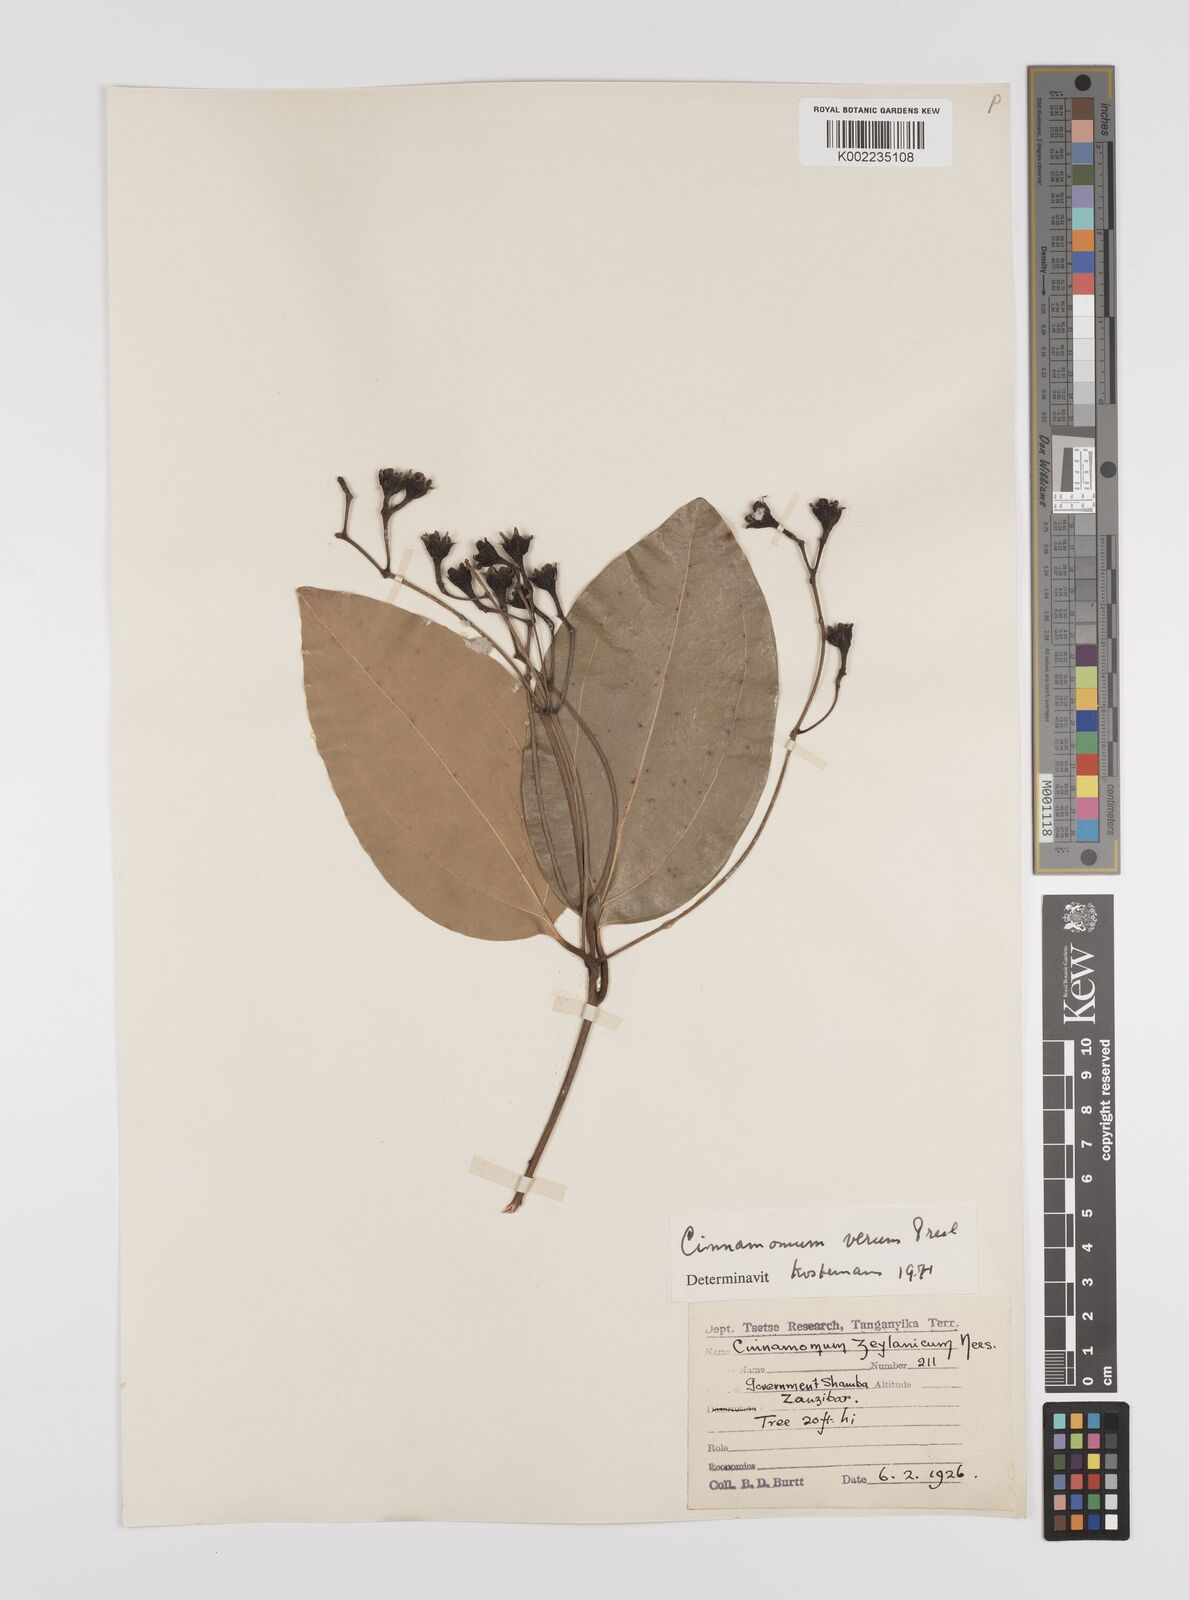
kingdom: Plantae
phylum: Tracheophyta
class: Magnoliopsida
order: Laurales
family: Lauraceae
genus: Cinnamomum
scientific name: Cinnamomum verum
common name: Cinnamon
